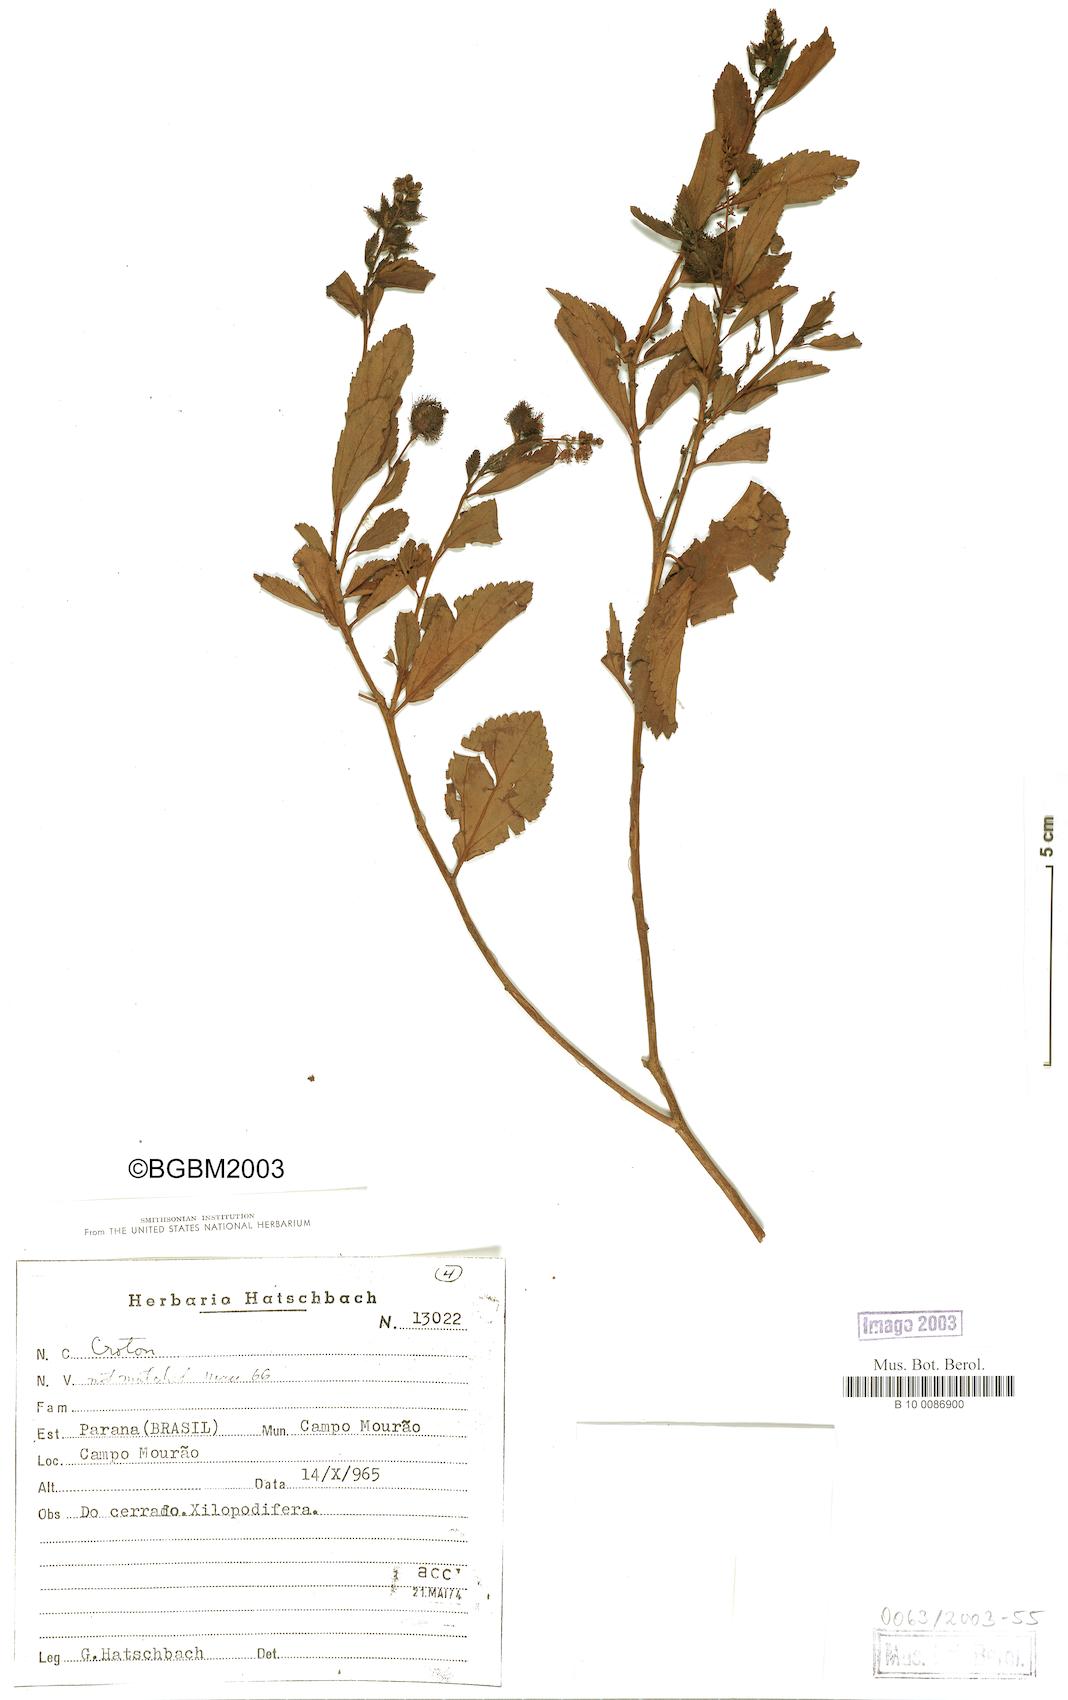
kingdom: Plantae
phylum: Tracheophyta
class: Magnoliopsida
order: Malpighiales
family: Euphorbiaceae
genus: Croton
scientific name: Croton
